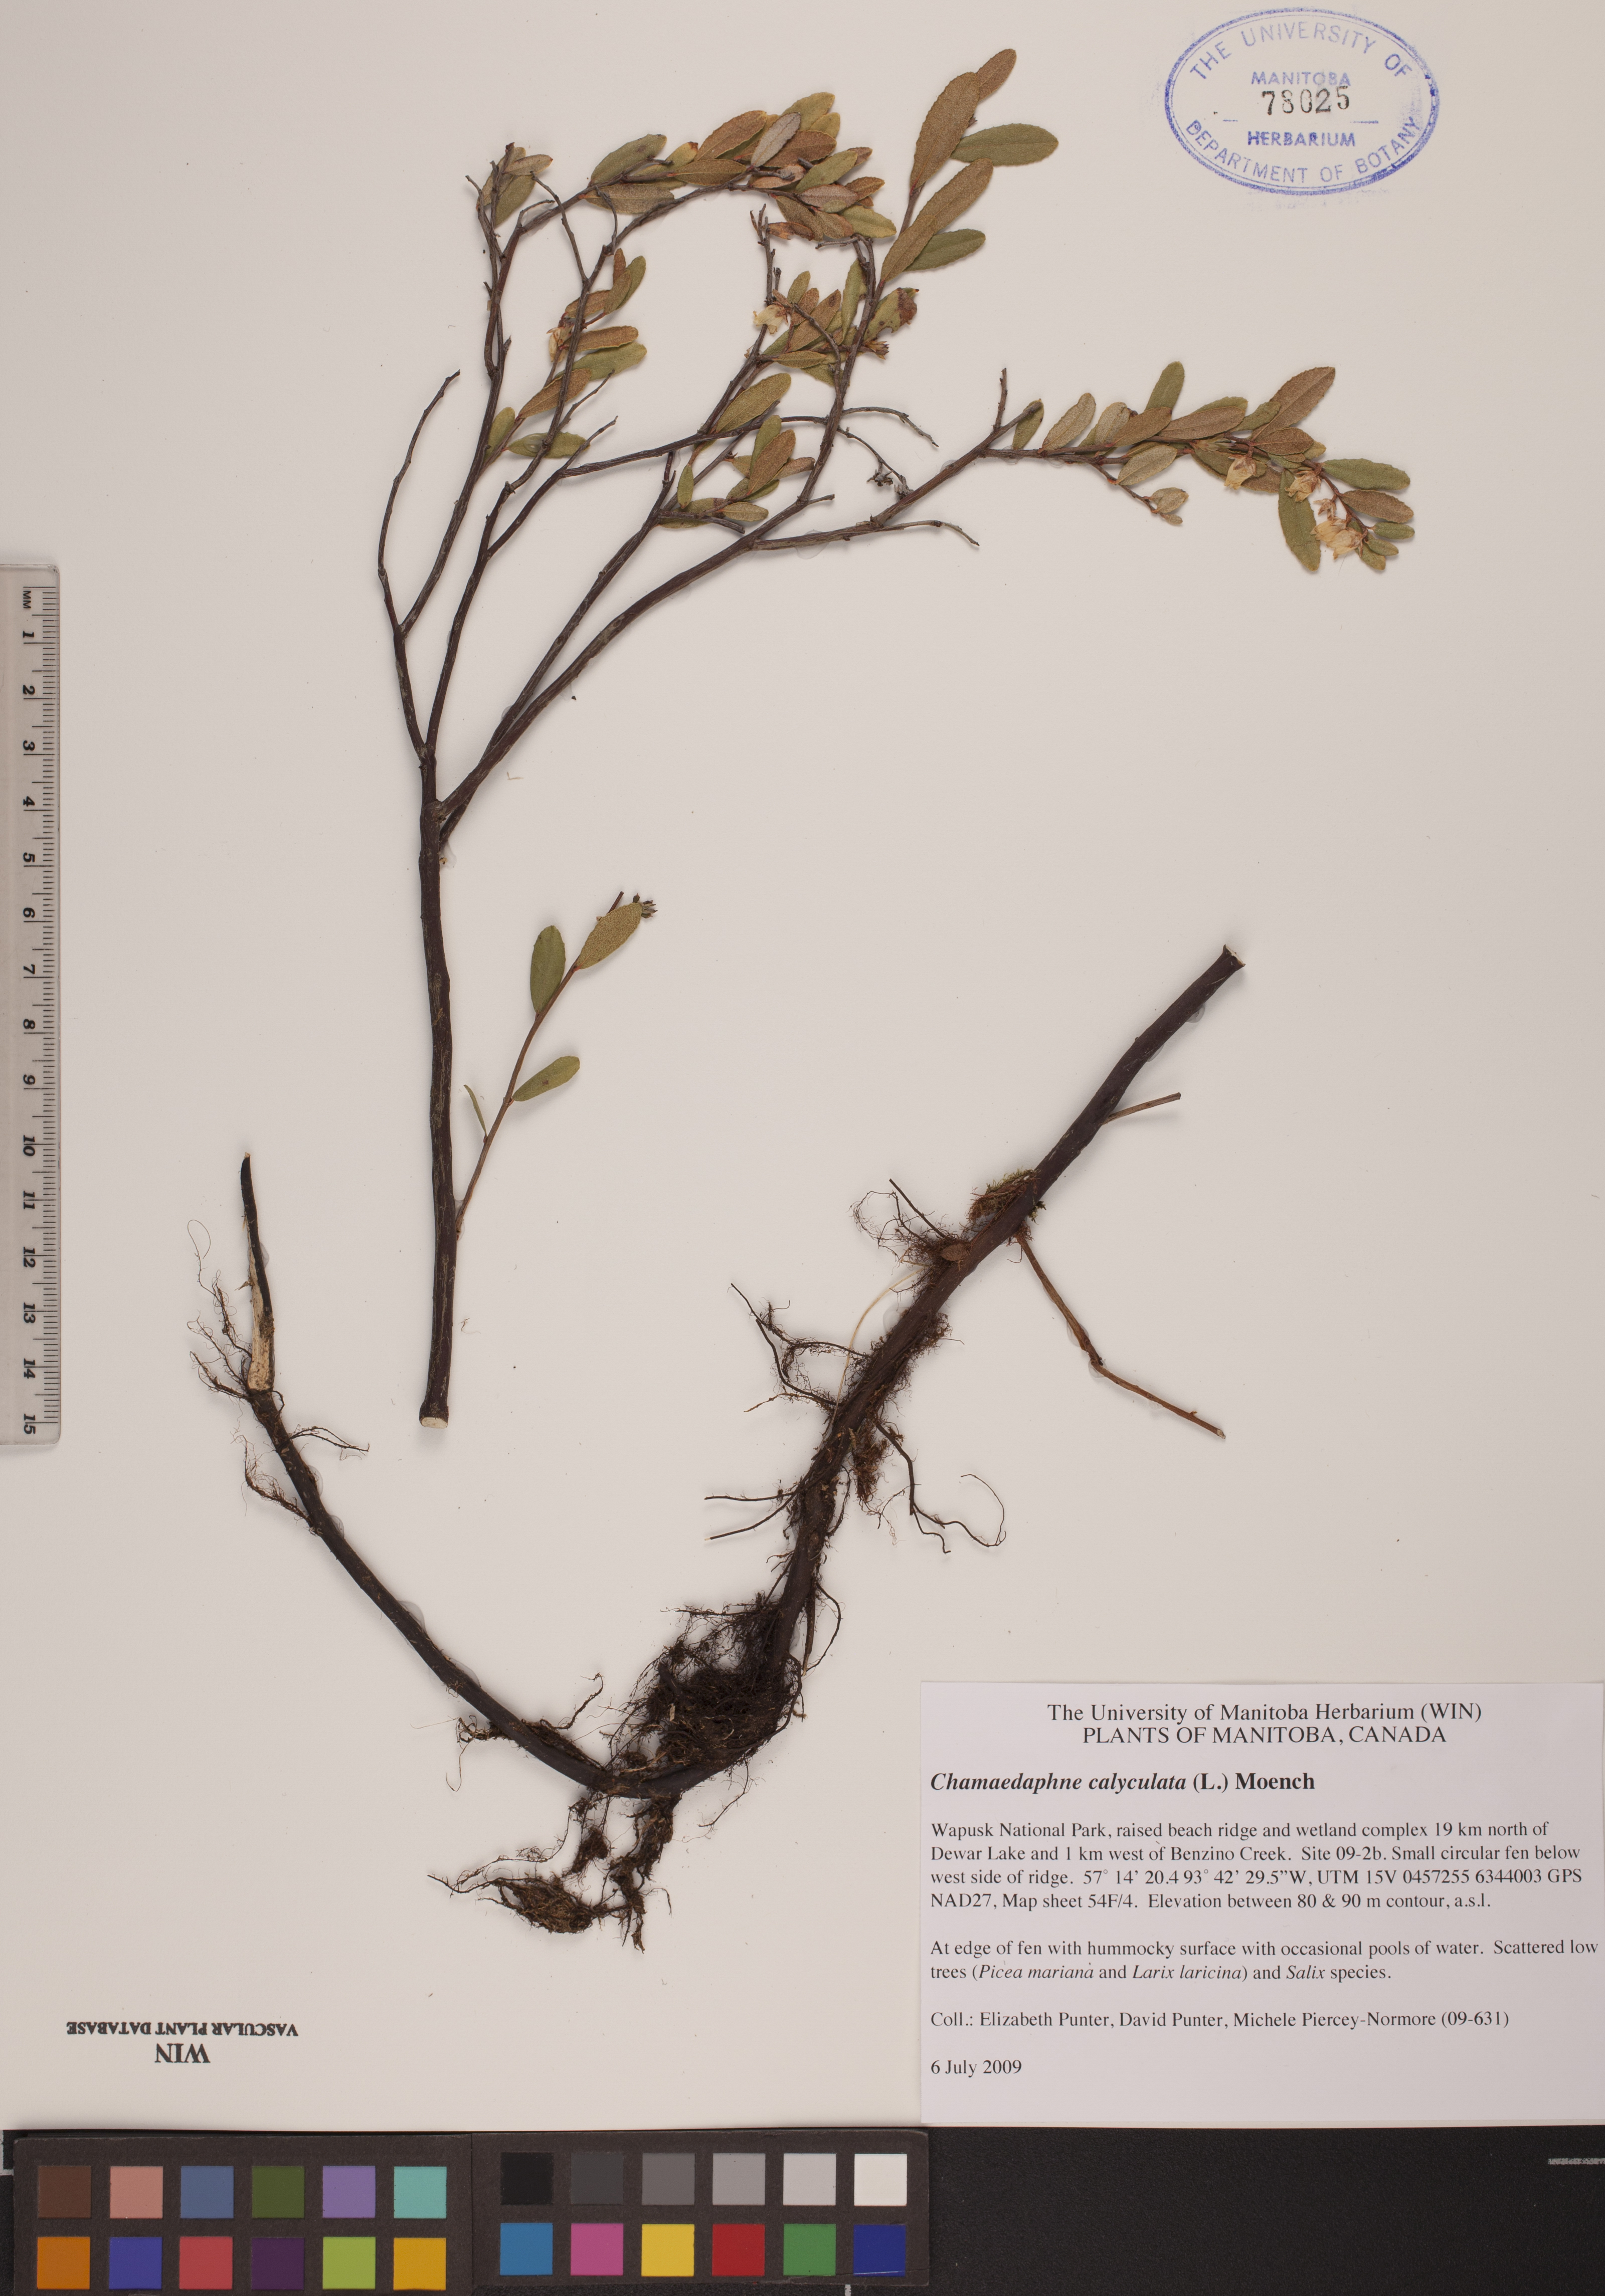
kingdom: Plantae
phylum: Tracheophyta
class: Magnoliopsida
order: Ericales
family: Ericaceae
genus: Chamaedaphne
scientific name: Chamaedaphne calyculata
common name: Leatherleaf
